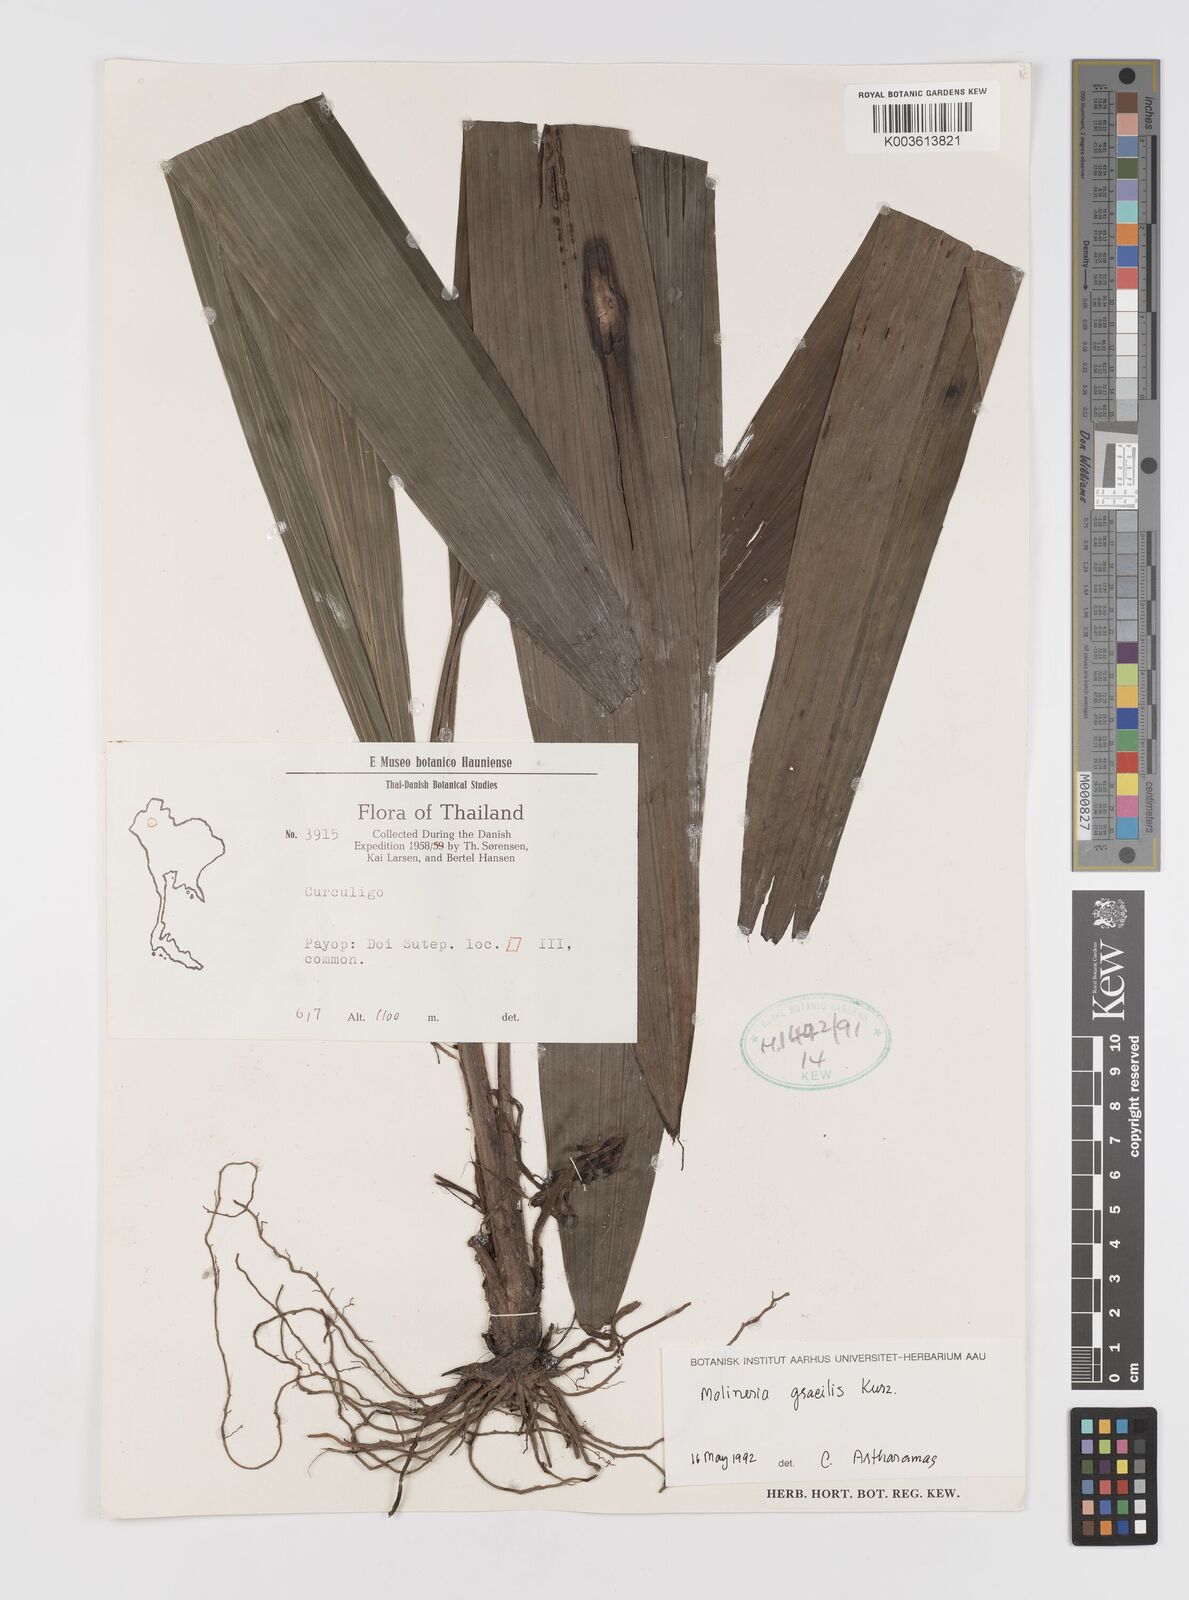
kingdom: Plantae
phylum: Tracheophyta
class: Liliopsida
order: Asparagales
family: Hypoxidaceae
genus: Curculigo
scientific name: Curculigo gracilis
